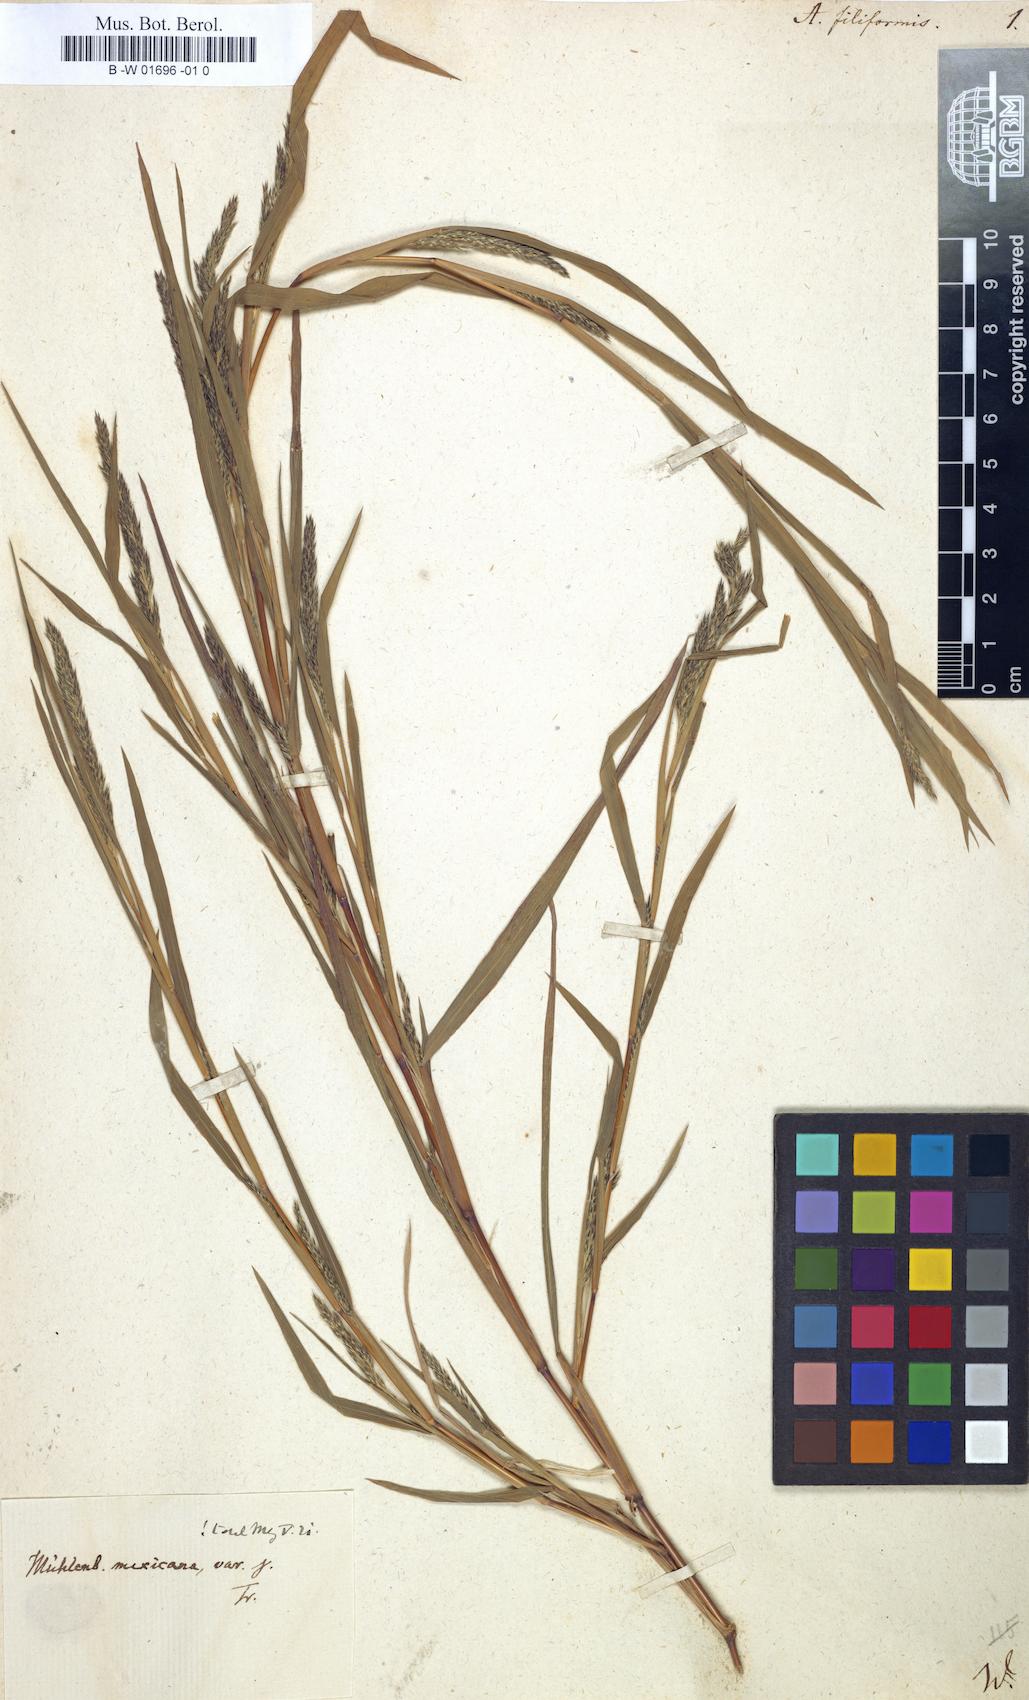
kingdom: Plantae
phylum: Tracheophyta
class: Liliopsida
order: Poales
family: Poaceae
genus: Apera
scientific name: Apera spica-venti
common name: Loose silky-bent
